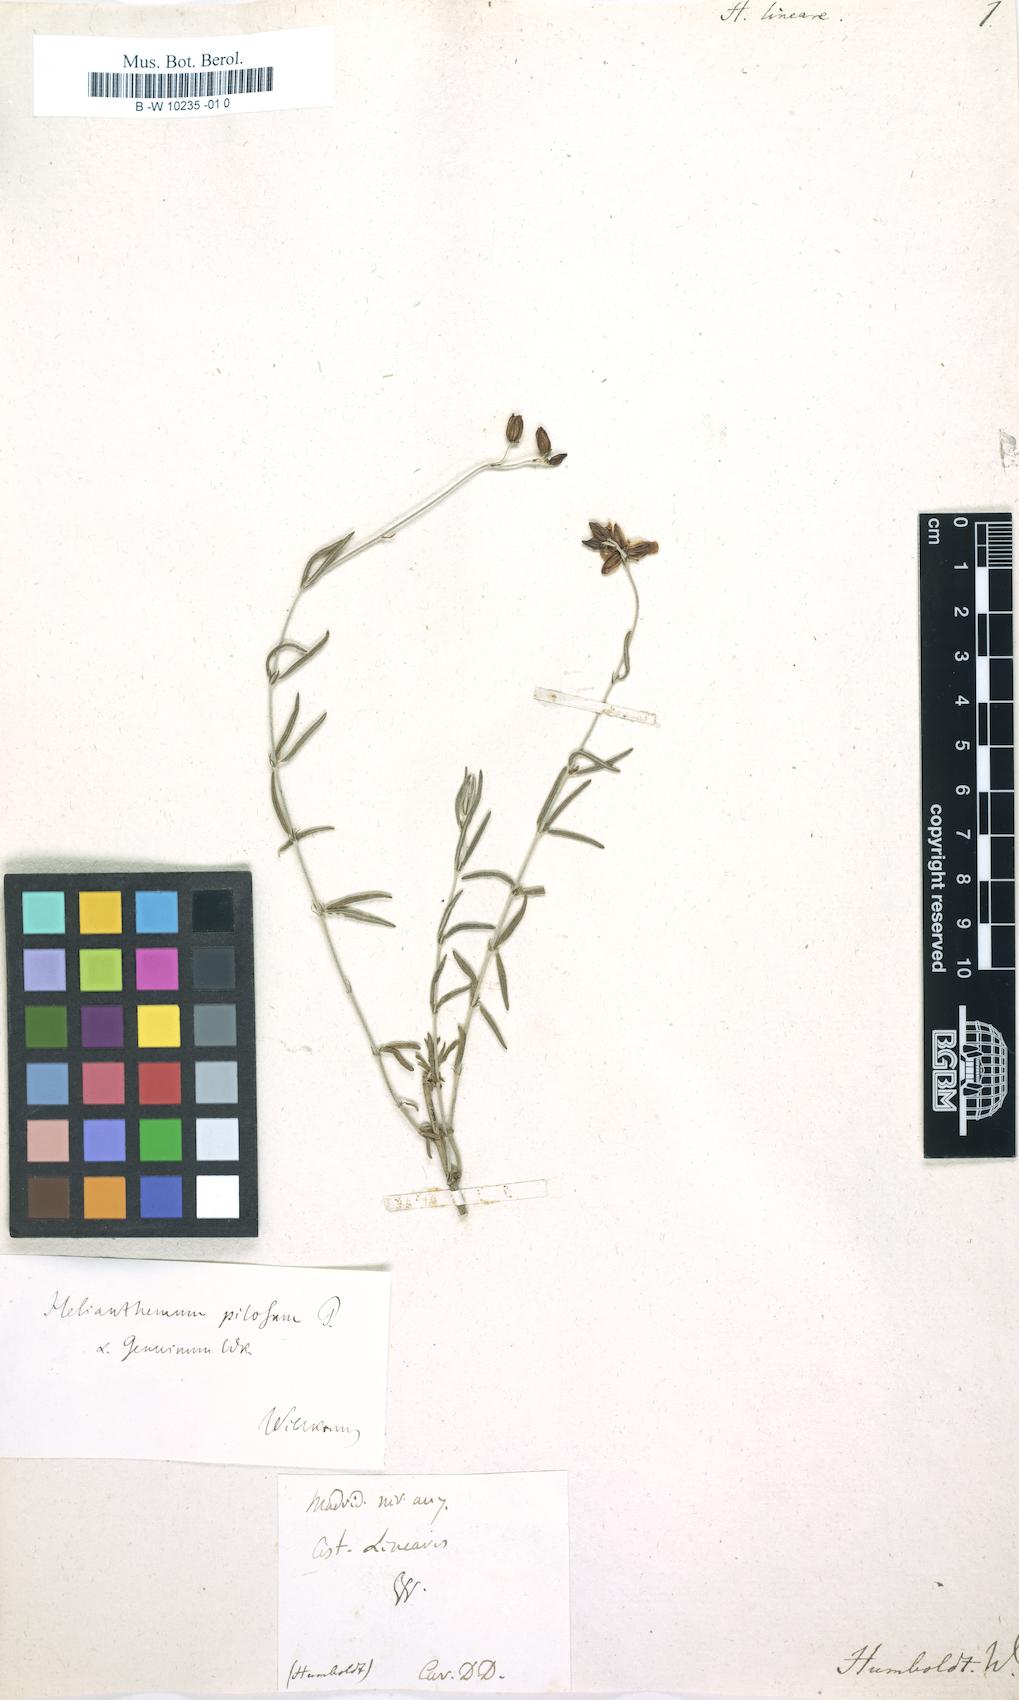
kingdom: Plantae
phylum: Tracheophyta
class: Magnoliopsida
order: Malvales
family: Cistaceae
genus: Helianthemum
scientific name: Helianthemum nummularium
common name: Common rock-rose
